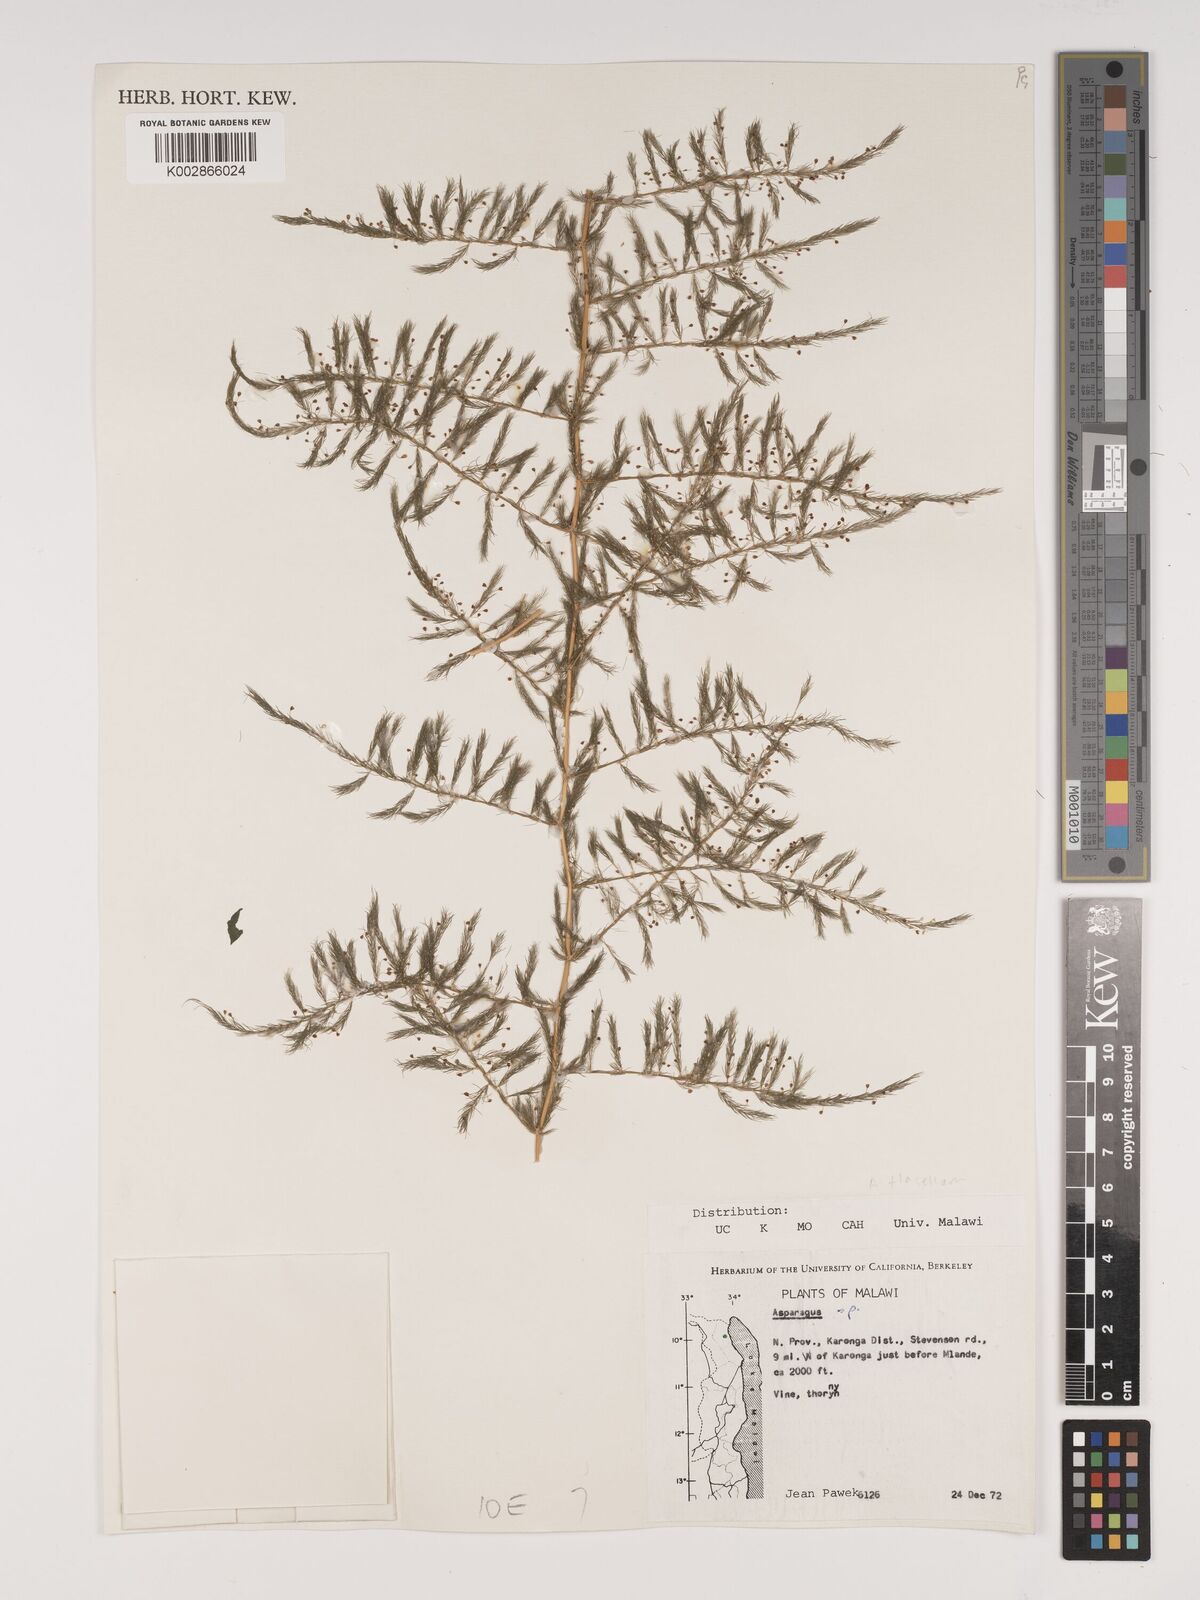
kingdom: Plantae
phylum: Tracheophyta
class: Liliopsida
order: Asparagales
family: Asparagaceae
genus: Asparagus
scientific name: Asparagus flagellaris
